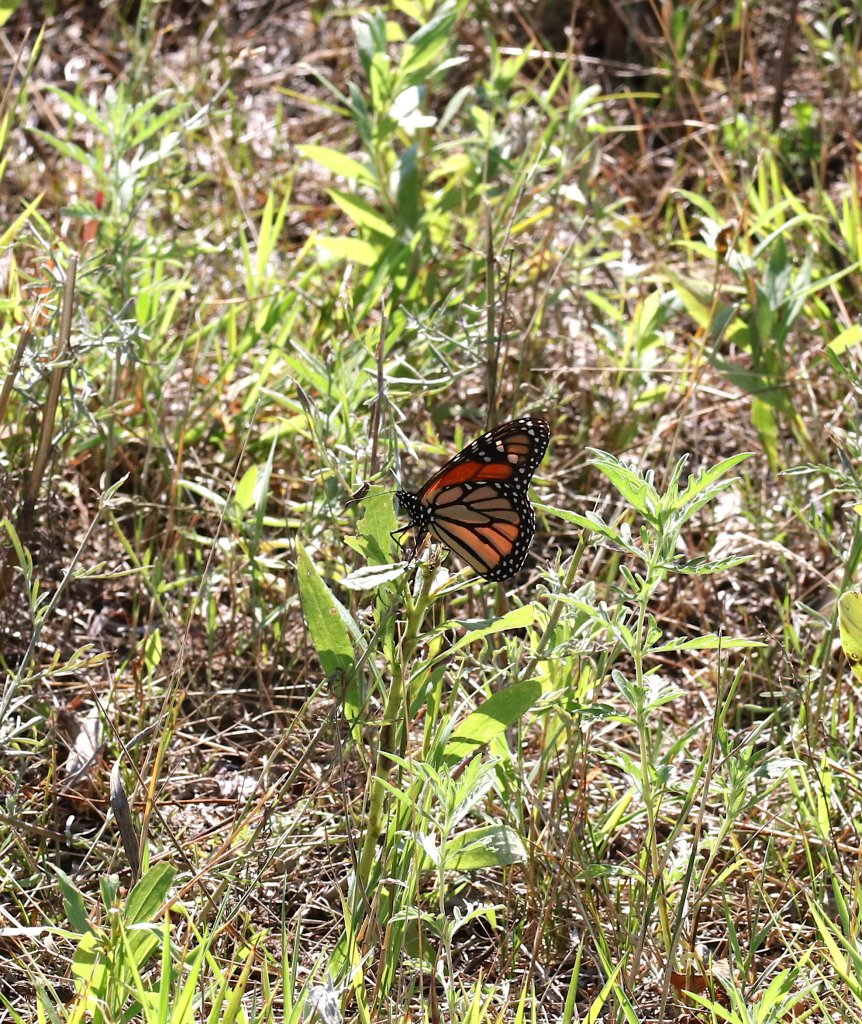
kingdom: Animalia
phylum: Arthropoda
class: Insecta
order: Lepidoptera
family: Nymphalidae
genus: Danaus
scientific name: Danaus plexippus
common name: Monarch
